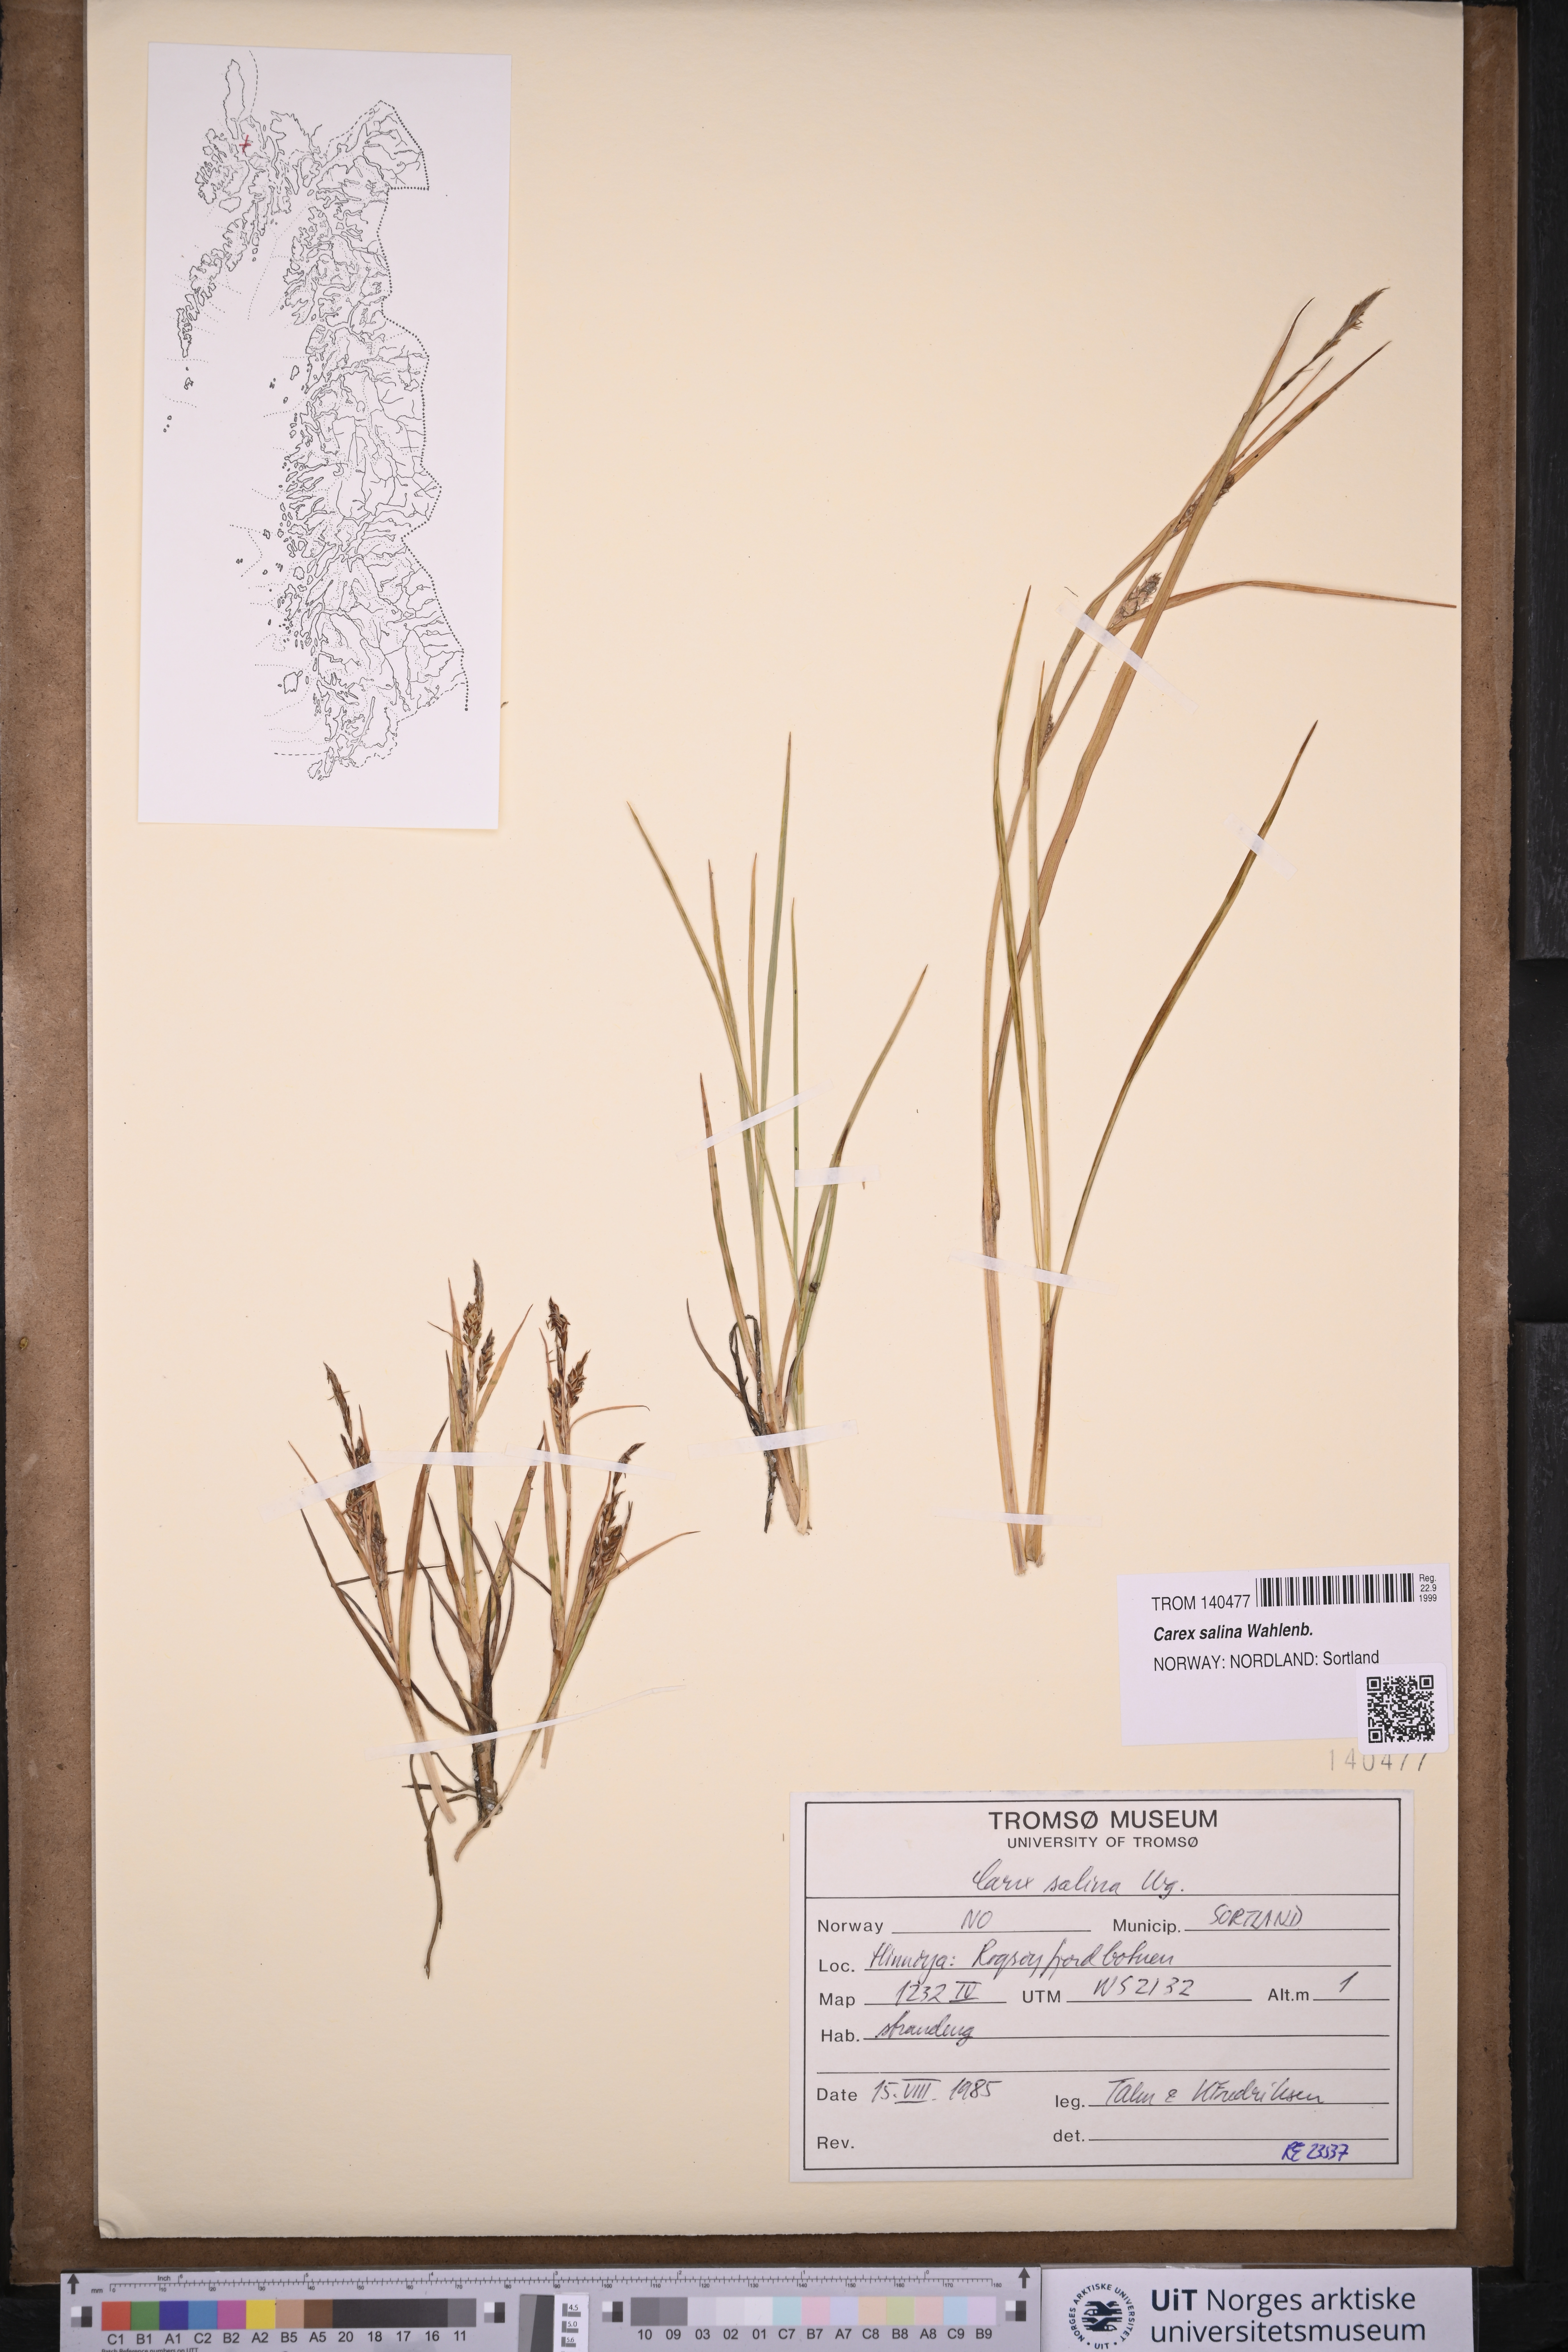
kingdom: Plantae
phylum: Tracheophyta
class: Liliopsida
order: Poales
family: Cyperaceae
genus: Carex
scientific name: Carex salina
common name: Saltmarsh sedge
